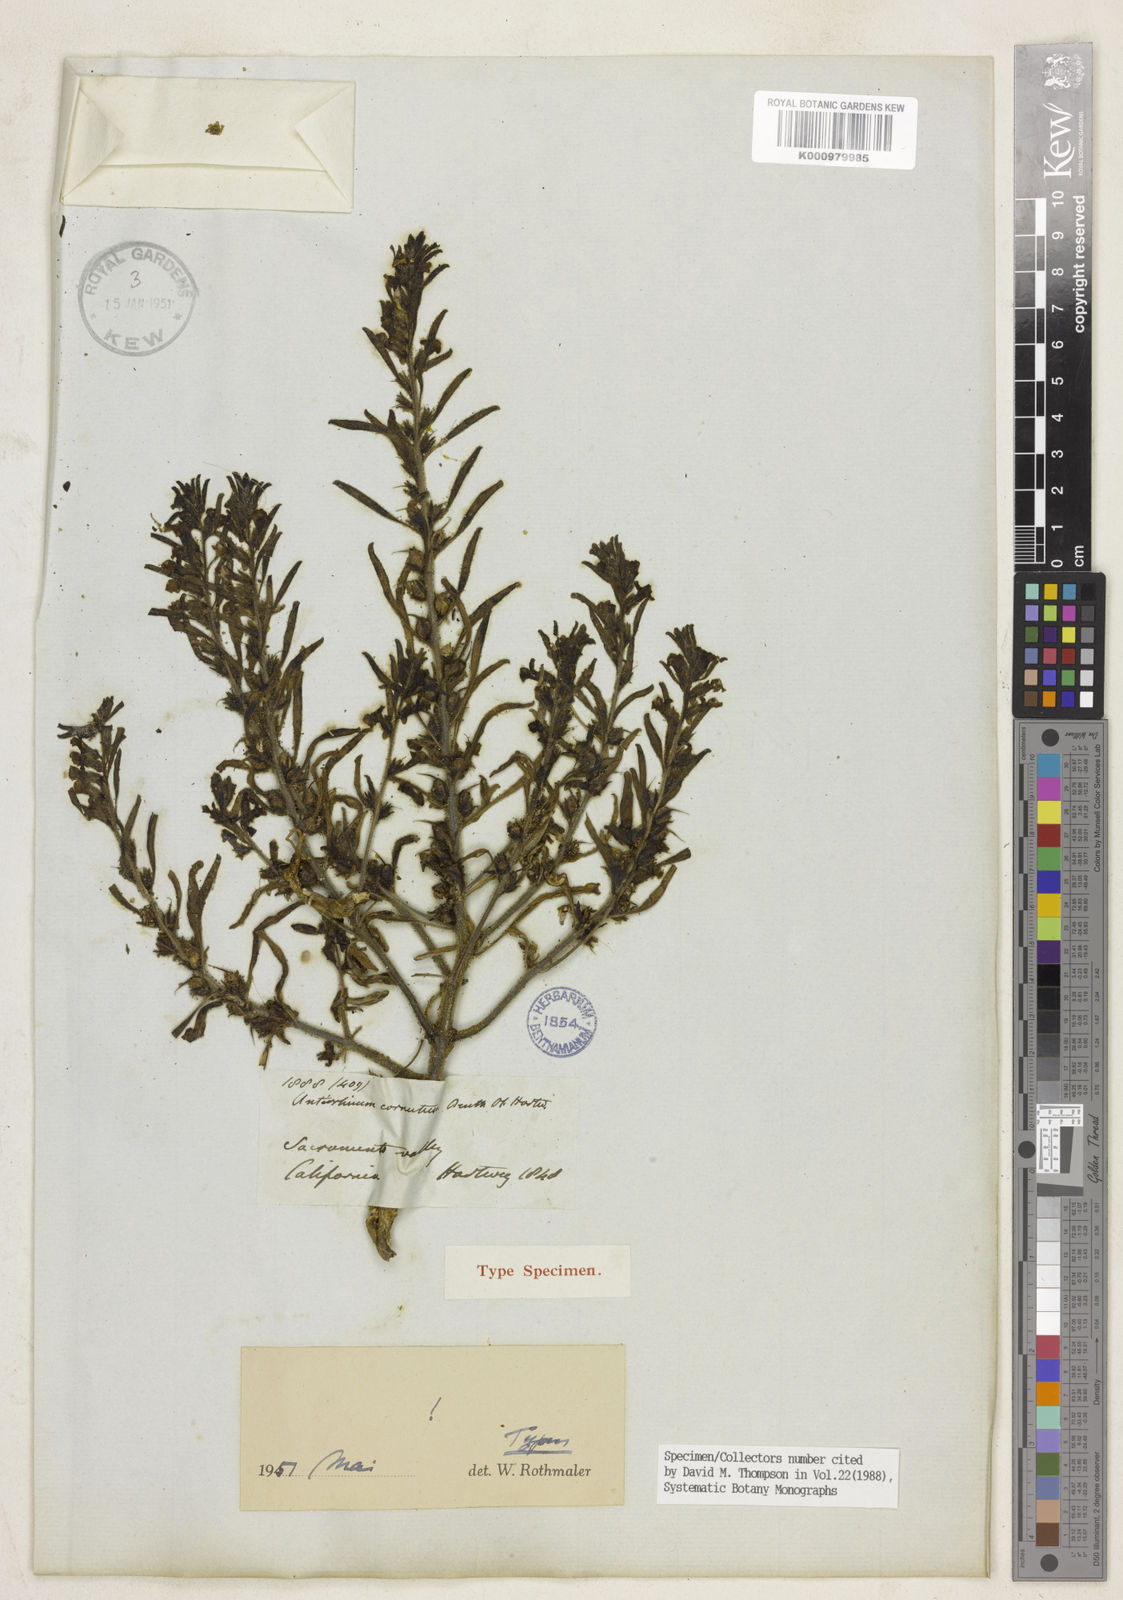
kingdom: Plantae
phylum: Tracheophyta
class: Magnoliopsida
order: Lamiales
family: Plantaginaceae
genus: Sairocarpus
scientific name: Sairocarpus cornutus
